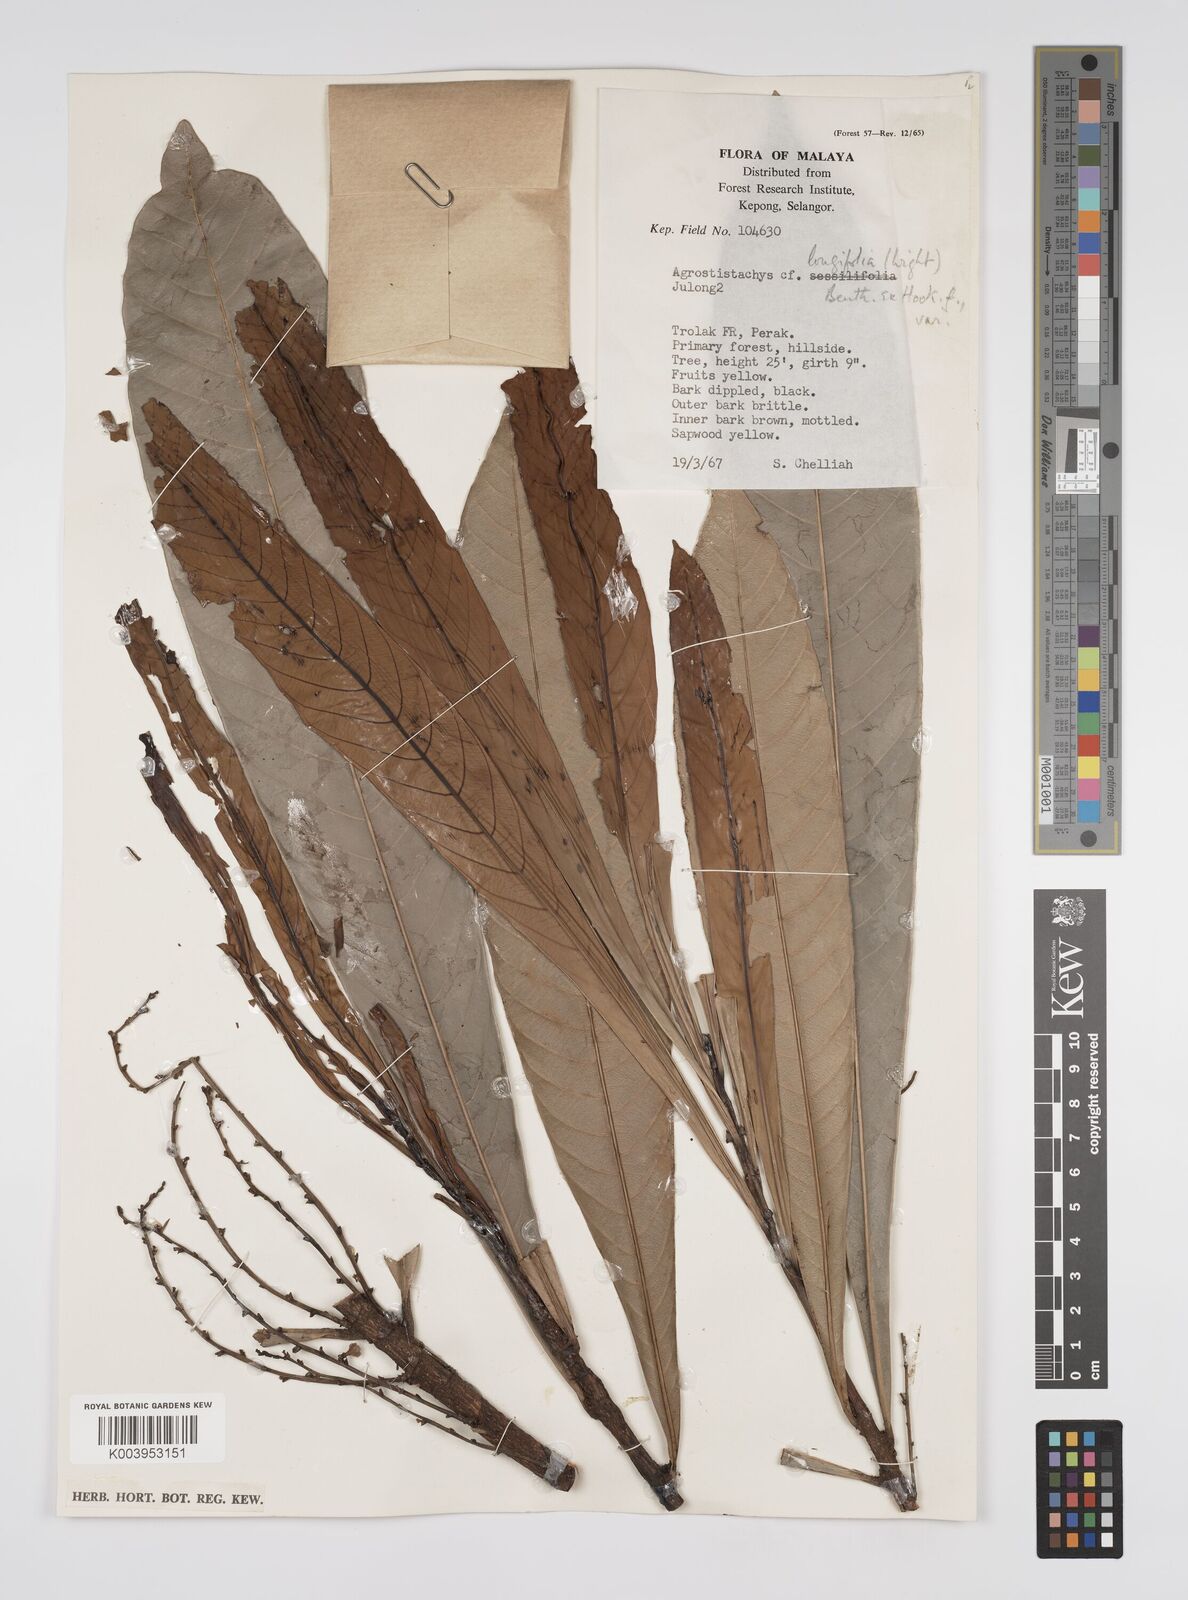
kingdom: Plantae
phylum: Tracheophyta
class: Magnoliopsida
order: Malpighiales
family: Euphorbiaceae
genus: Agrostistachys
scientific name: Agrostistachys borneensis
